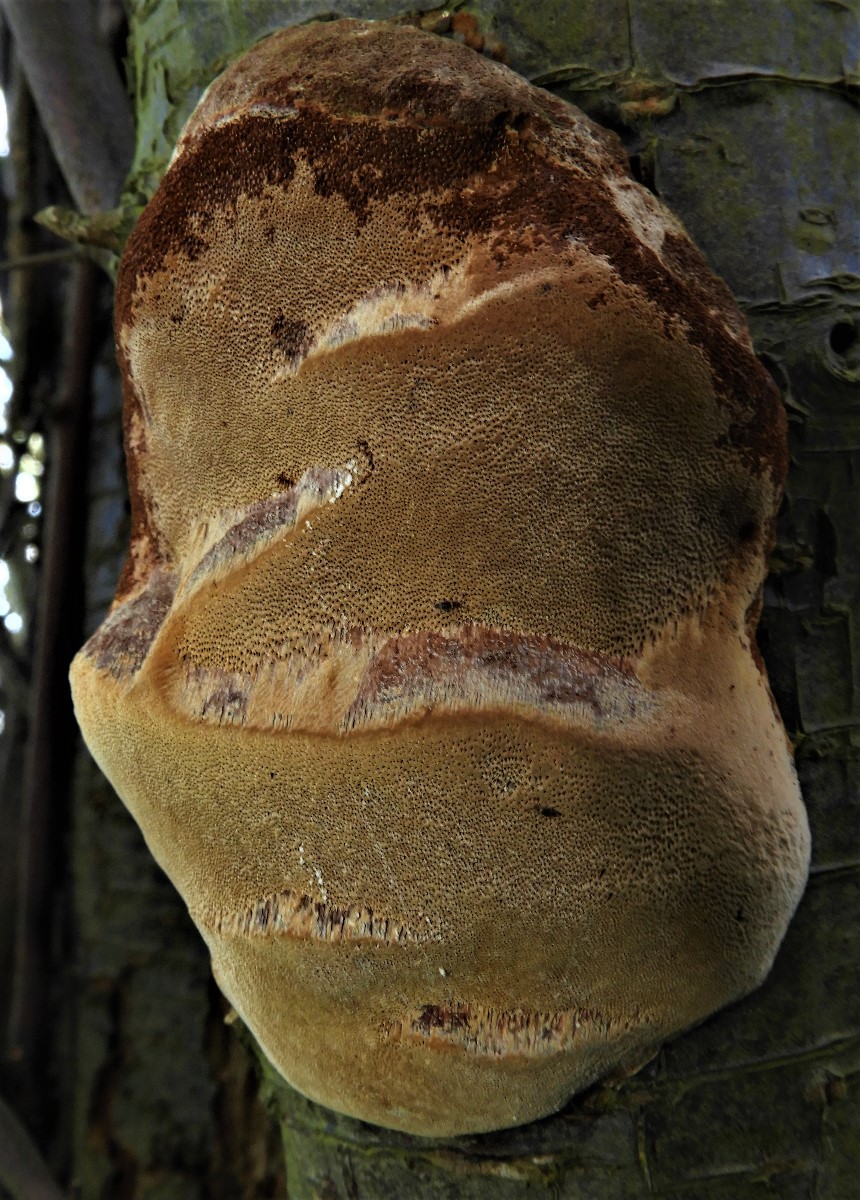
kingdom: Fungi
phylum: Basidiomycota
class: Agaricomycetes
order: Hymenochaetales
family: Hymenochaetaceae
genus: Phellinus
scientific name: Phellinus pomaceus
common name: blomme-ildporesvamp
